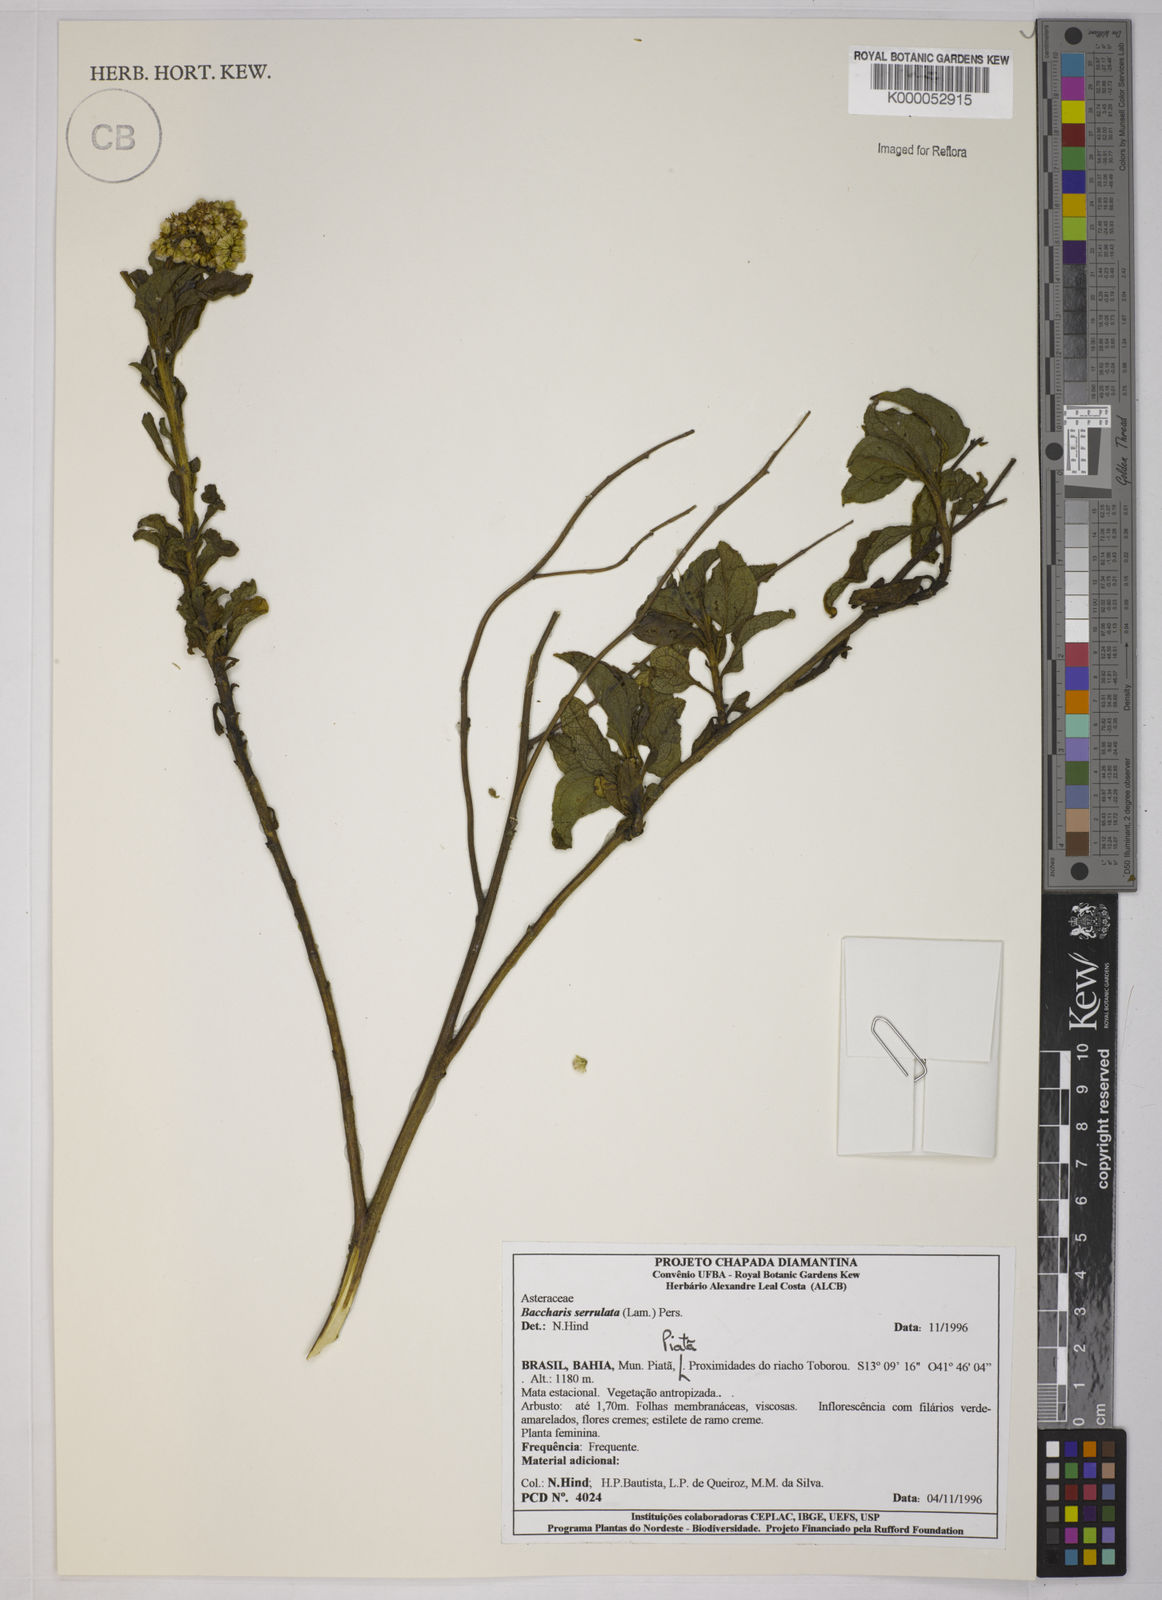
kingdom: Plantae
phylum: Tracheophyta
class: Magnoliopsida
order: Asterales
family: Asteraceae
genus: Baccharis
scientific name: Baccharis serrulata
